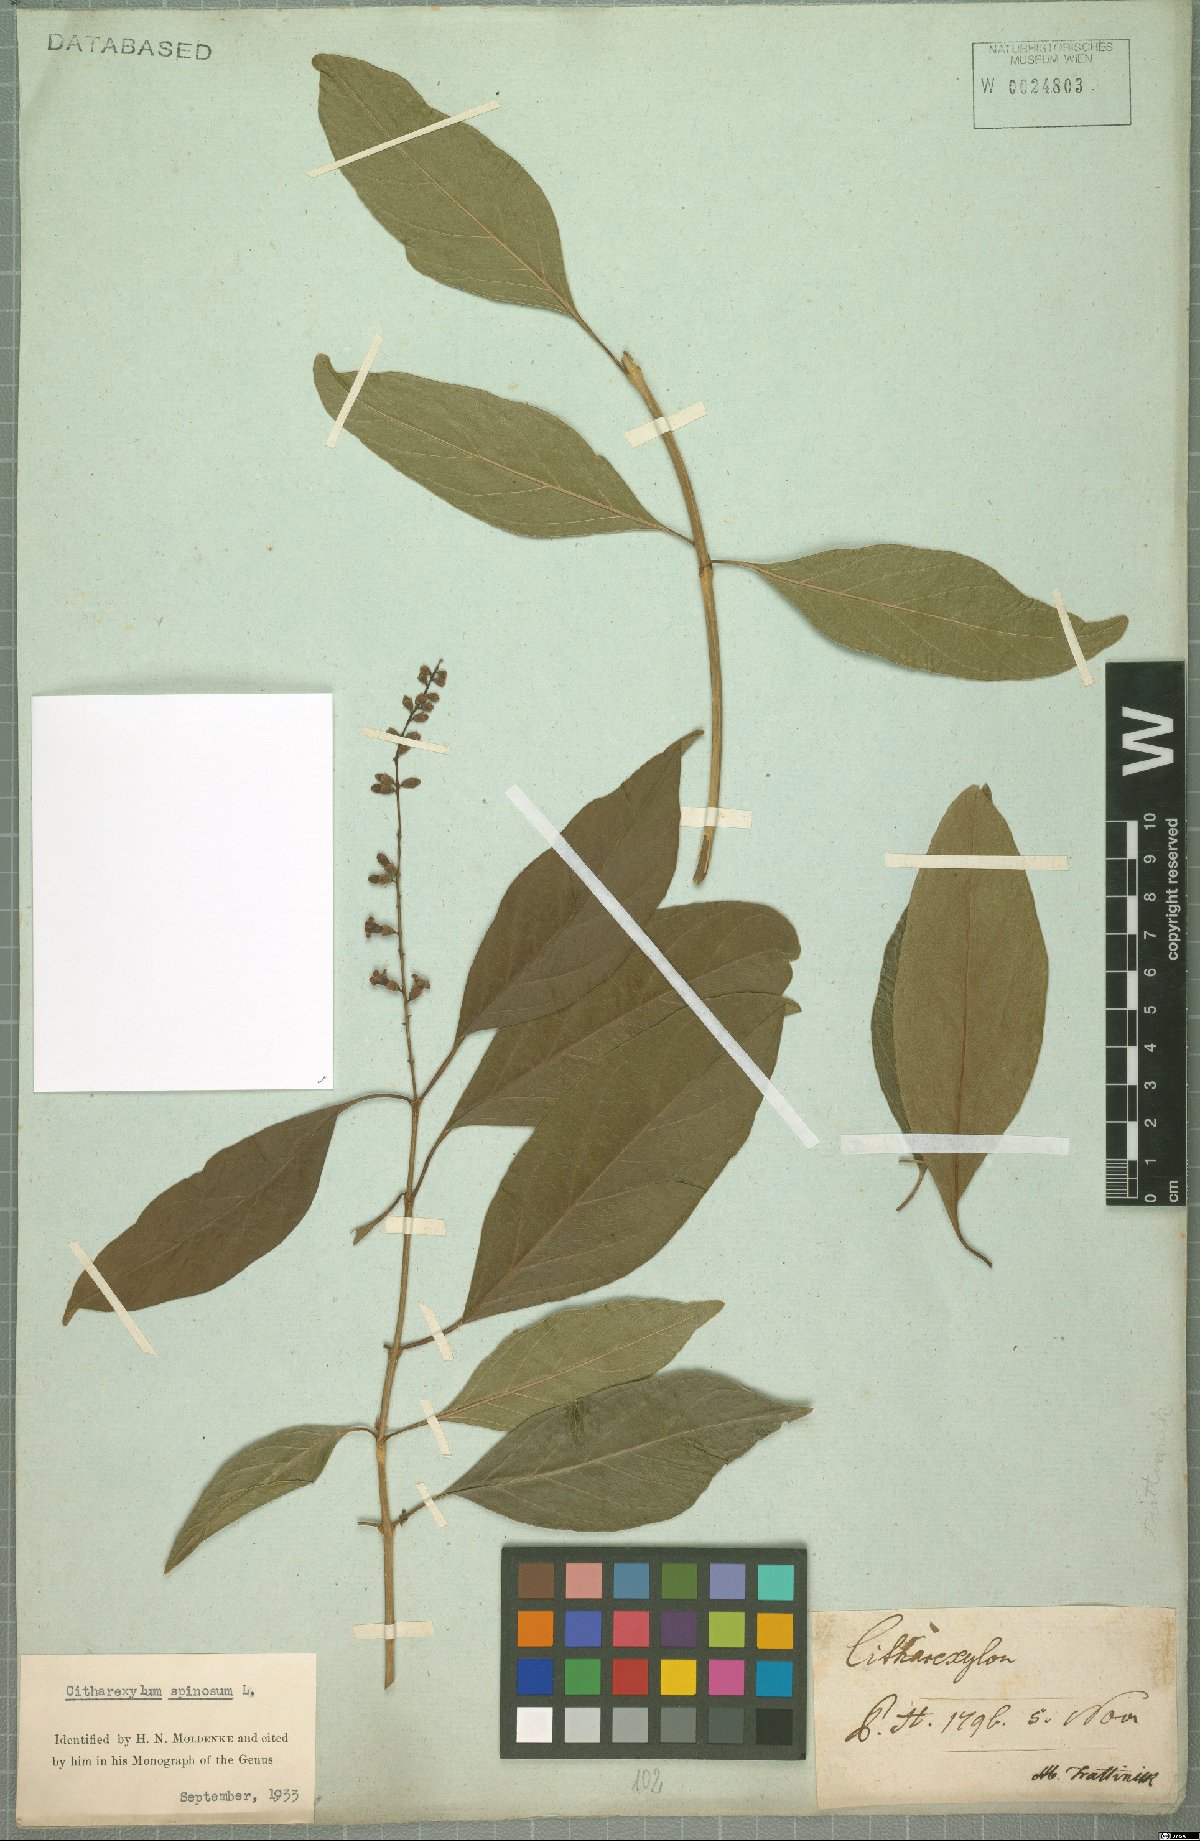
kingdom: Plantae
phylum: Tracheophyta
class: Magnoliopsida
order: Lamiales
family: Verbenaceae
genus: Citharexylum
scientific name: Citharexylum spinosum
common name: Fiddlewood
